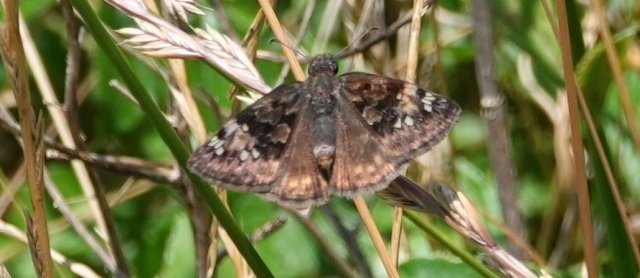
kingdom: Animalia
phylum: Arthropoda
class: Insecta
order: Lepidoptera
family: Hesperiidae
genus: Gesta
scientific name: Gesta
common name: Horace's Duskywing
